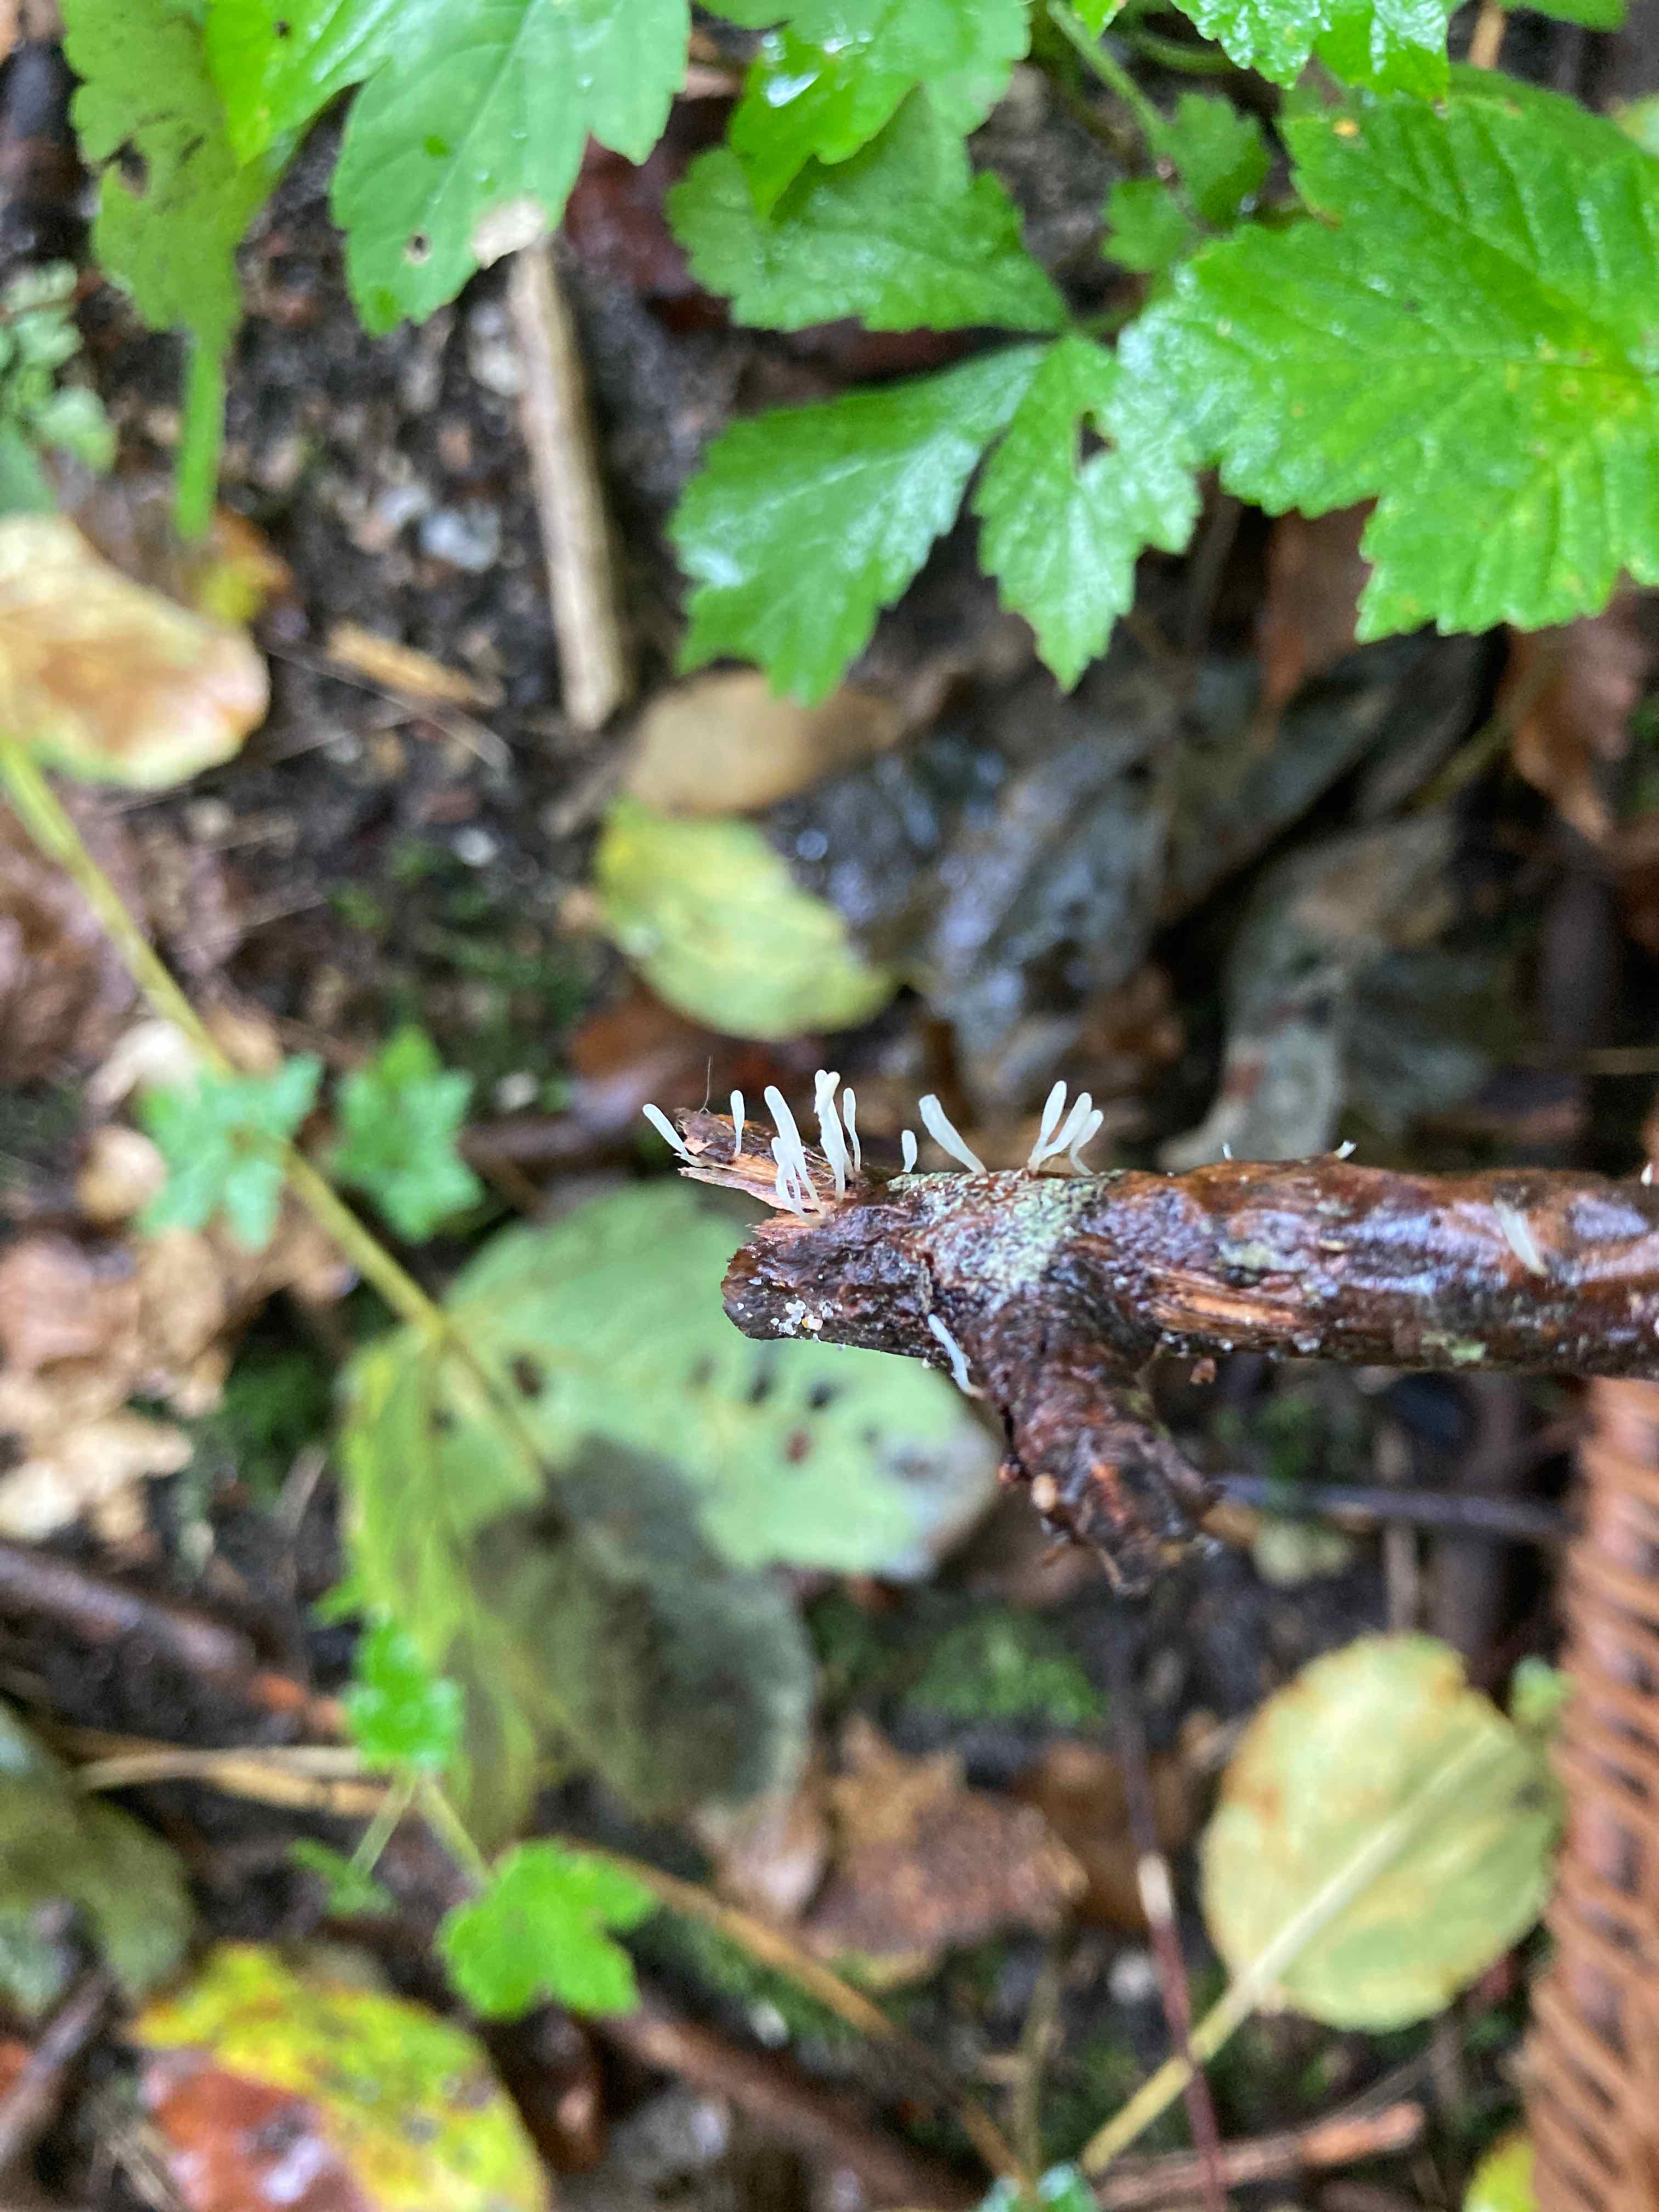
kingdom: Fungi
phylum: Basidiomycota
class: Agaricomycetes
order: Agaricales
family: Typhulaceae
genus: Typhula
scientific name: Typhula spathulata
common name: aske-trådkølle
